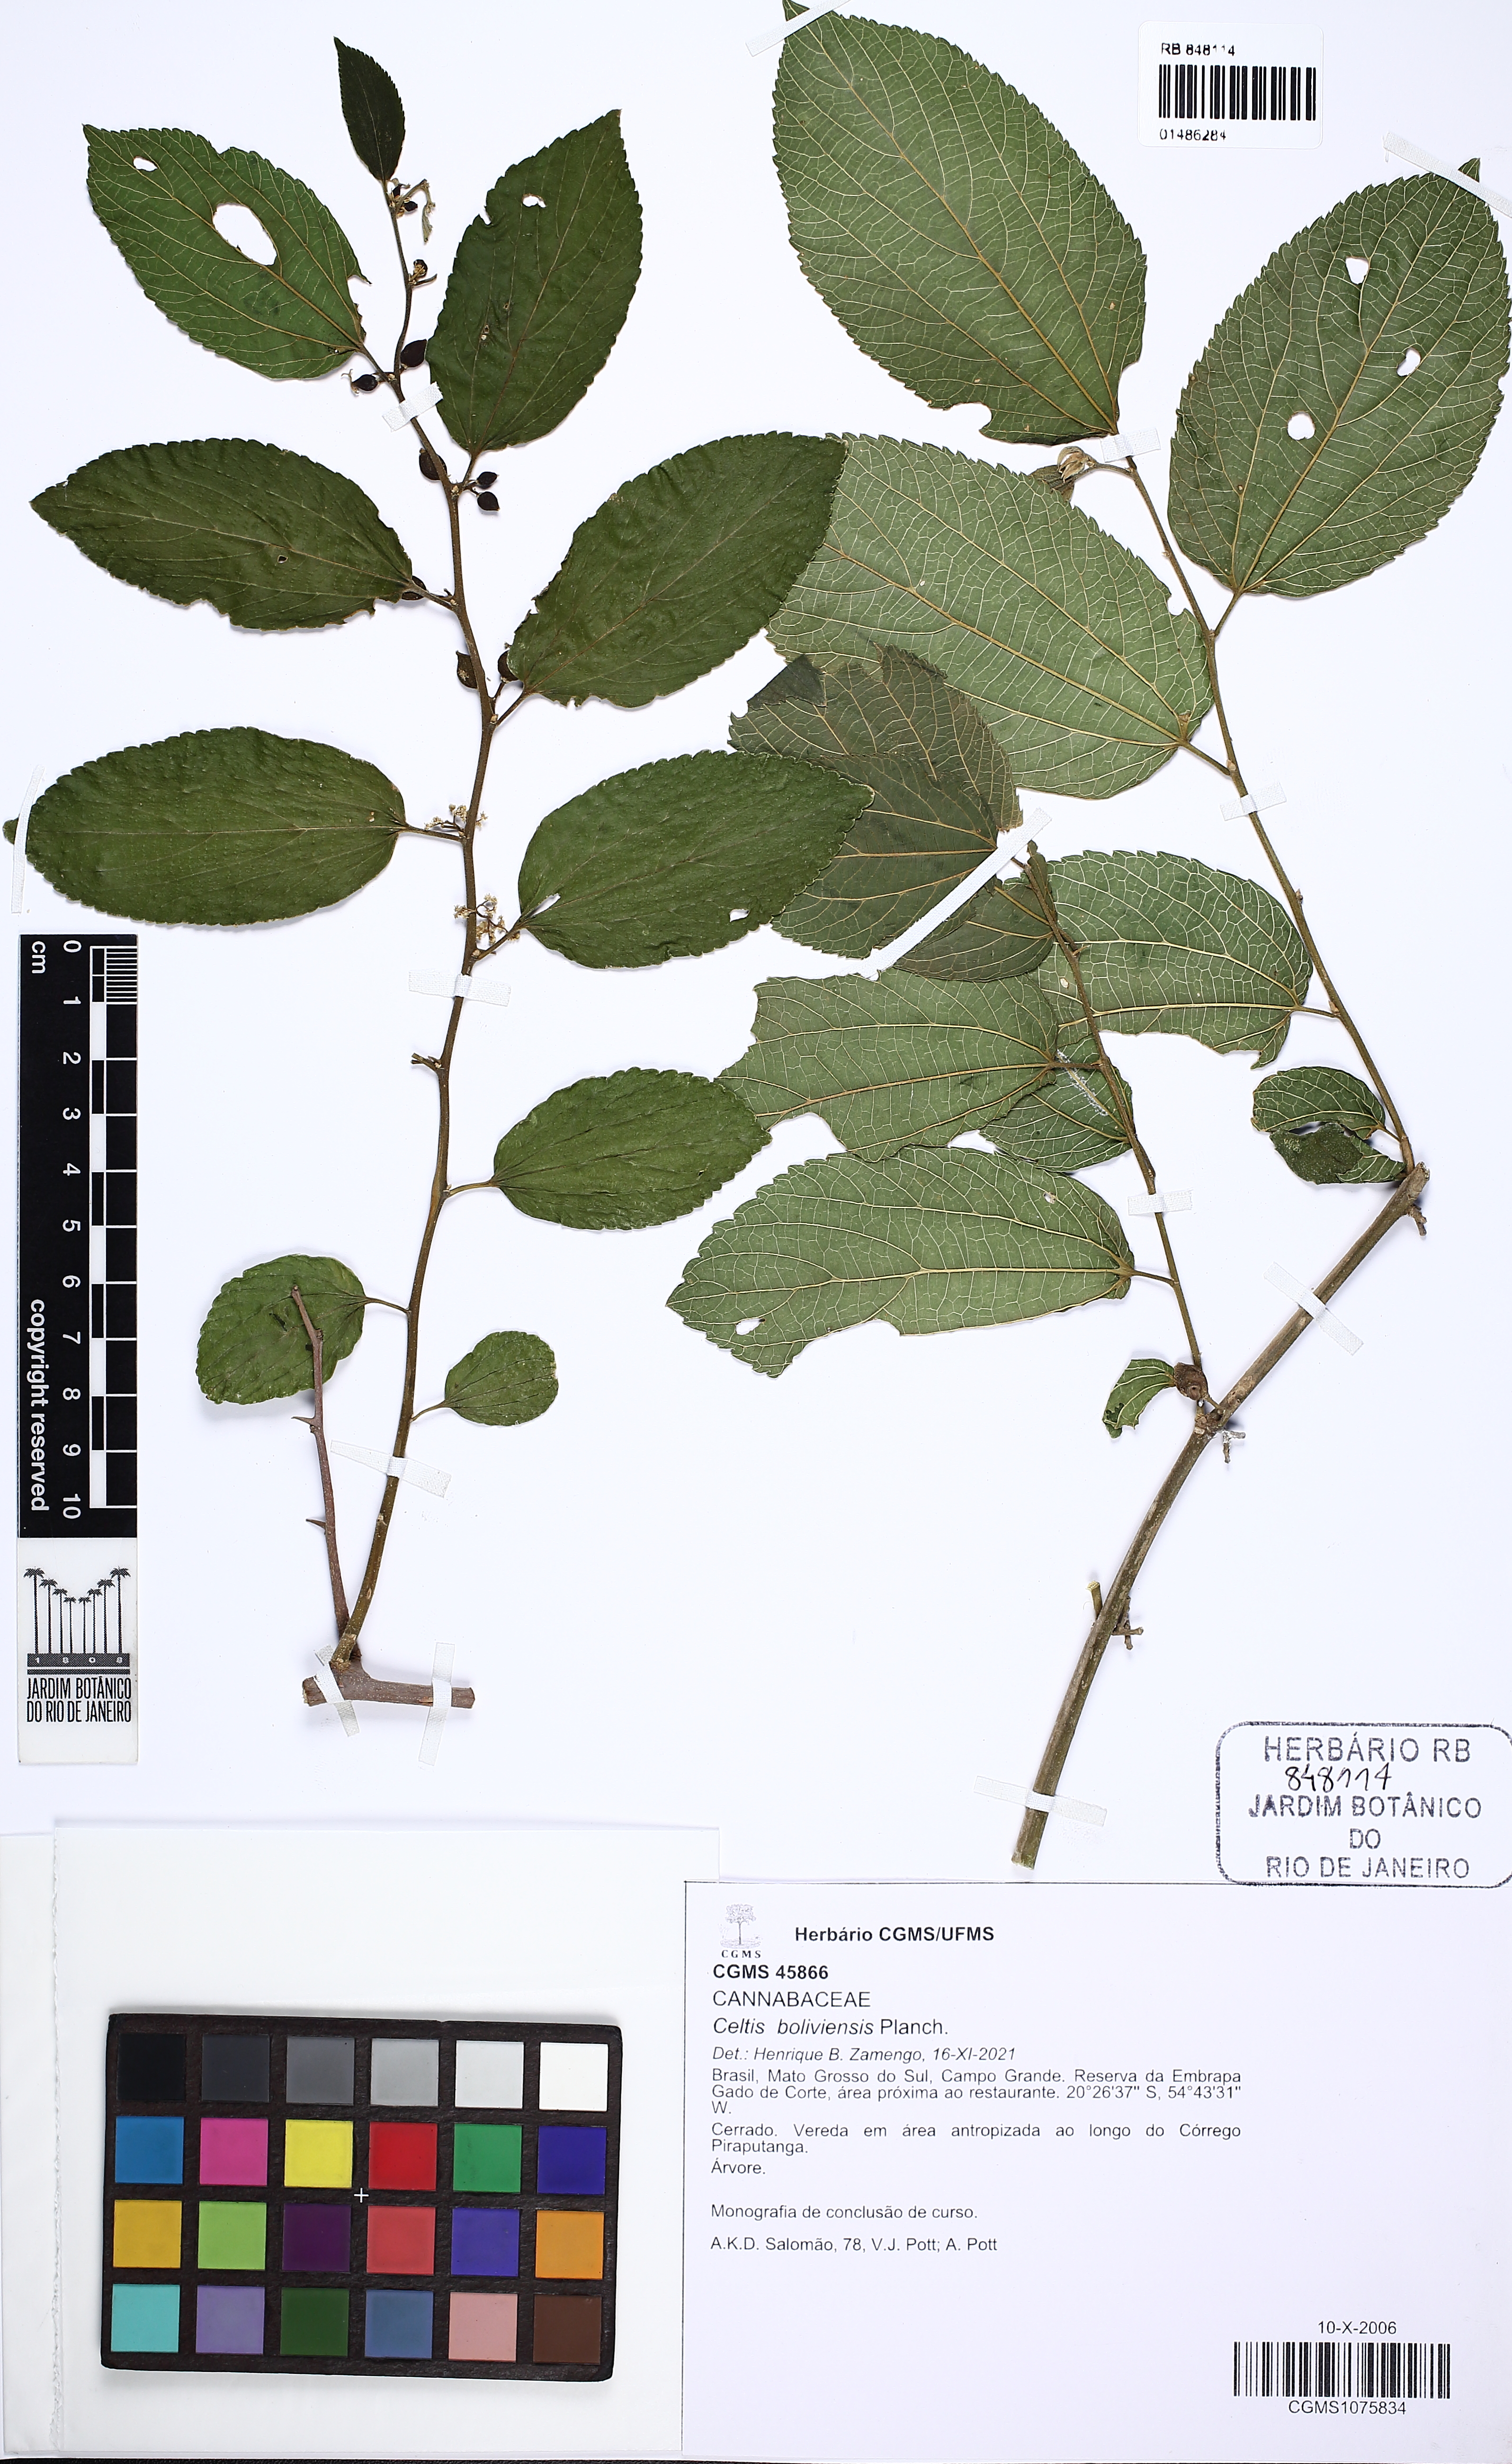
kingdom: Plantae
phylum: Tracheophyta
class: Magnoliopsida
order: Rosales
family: Cannabaceae
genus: Celtis
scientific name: Celtis
